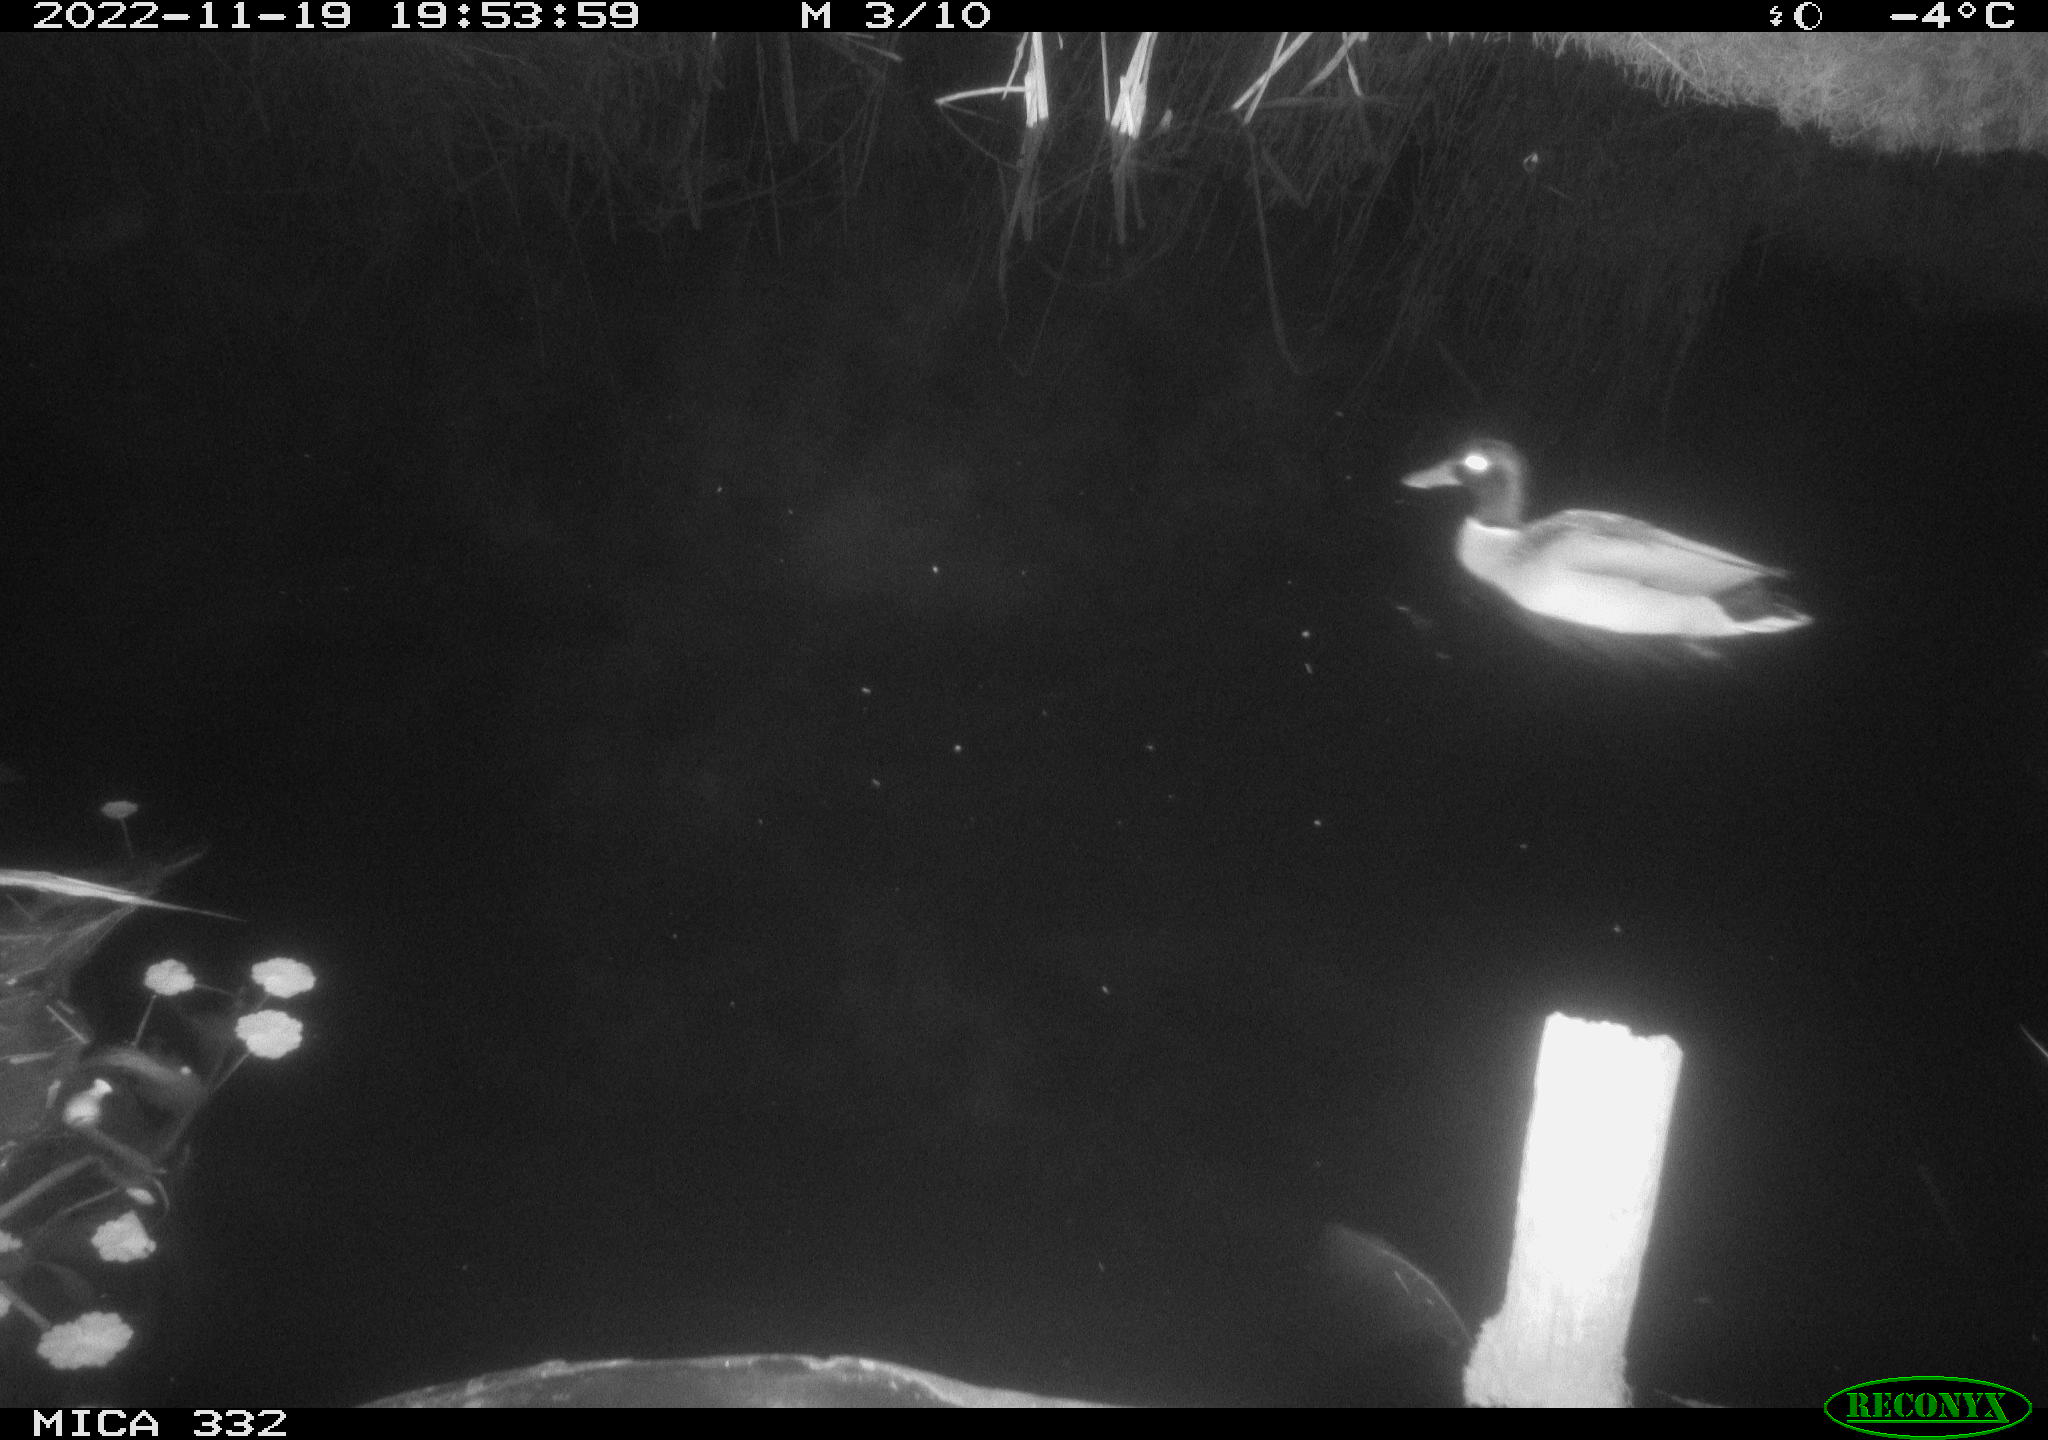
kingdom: Animalia
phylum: Chordata
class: Aves
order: Anseriformes
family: Anatidae
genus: Anas
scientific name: Anas platyrhynchos
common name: Mallard
